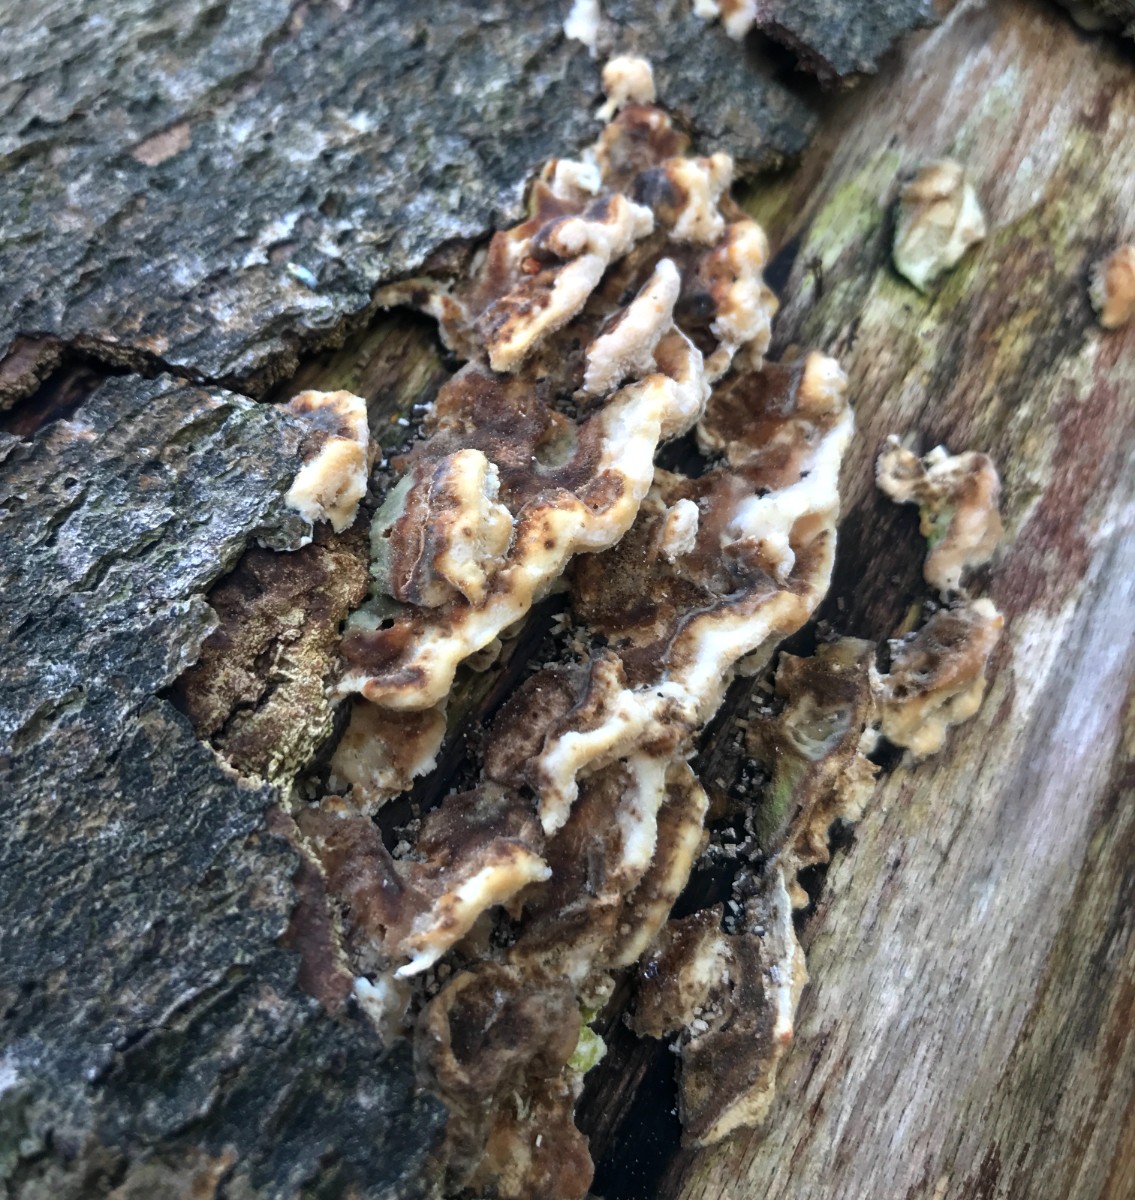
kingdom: Fungi
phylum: Basidiomycota
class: Agaricomycetes
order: Polyporales
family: Polyporaceae
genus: Trametes
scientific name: Trametes versicolor
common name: broget læderporesvamp
